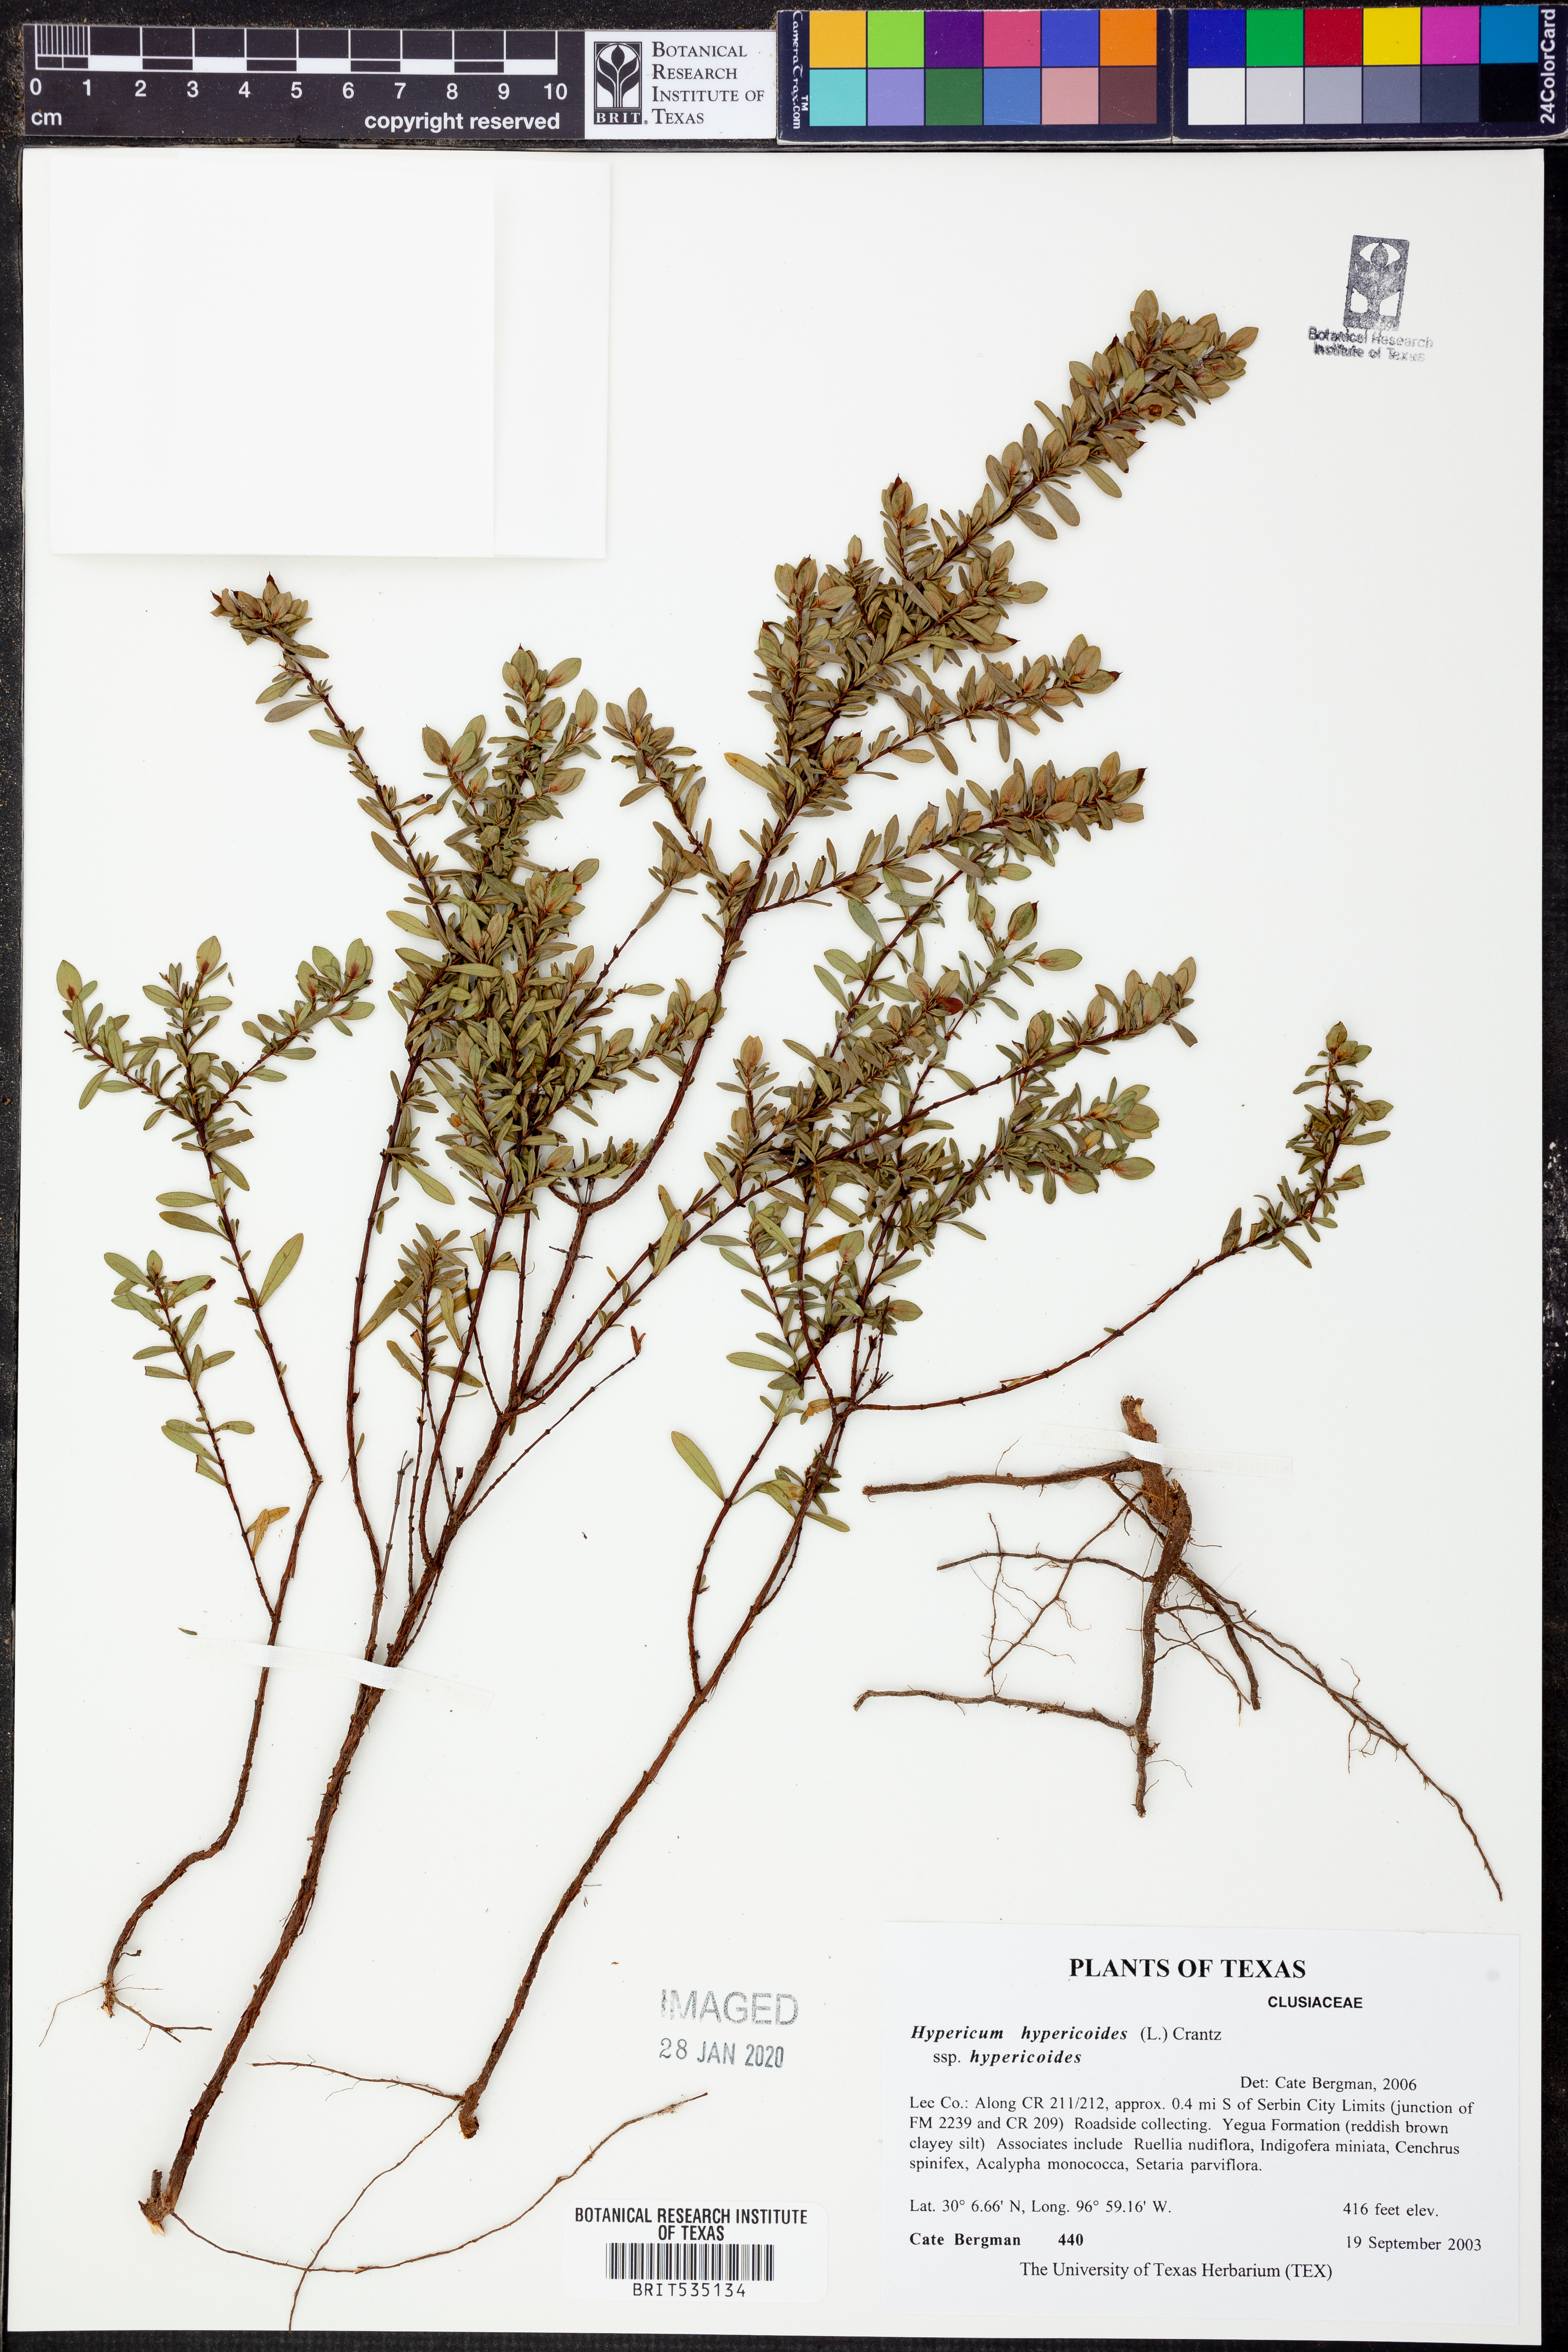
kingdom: Plantae
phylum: Tracheophyta
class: Magnoliopsida
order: Malpighiales
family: Hypericaceae
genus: Hypericum
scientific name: Hypericum hypericoides
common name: St. andrew's cross
